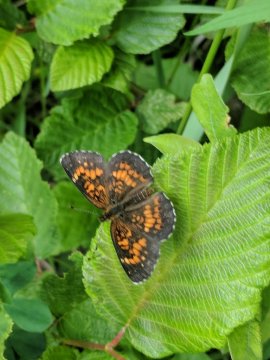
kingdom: Animalia
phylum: Arthropoda
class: Insecta
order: Lepidoptera
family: Nymphalidae
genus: Chlosyne
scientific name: Chlosyne harrisii
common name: Harris's Checkerspot
